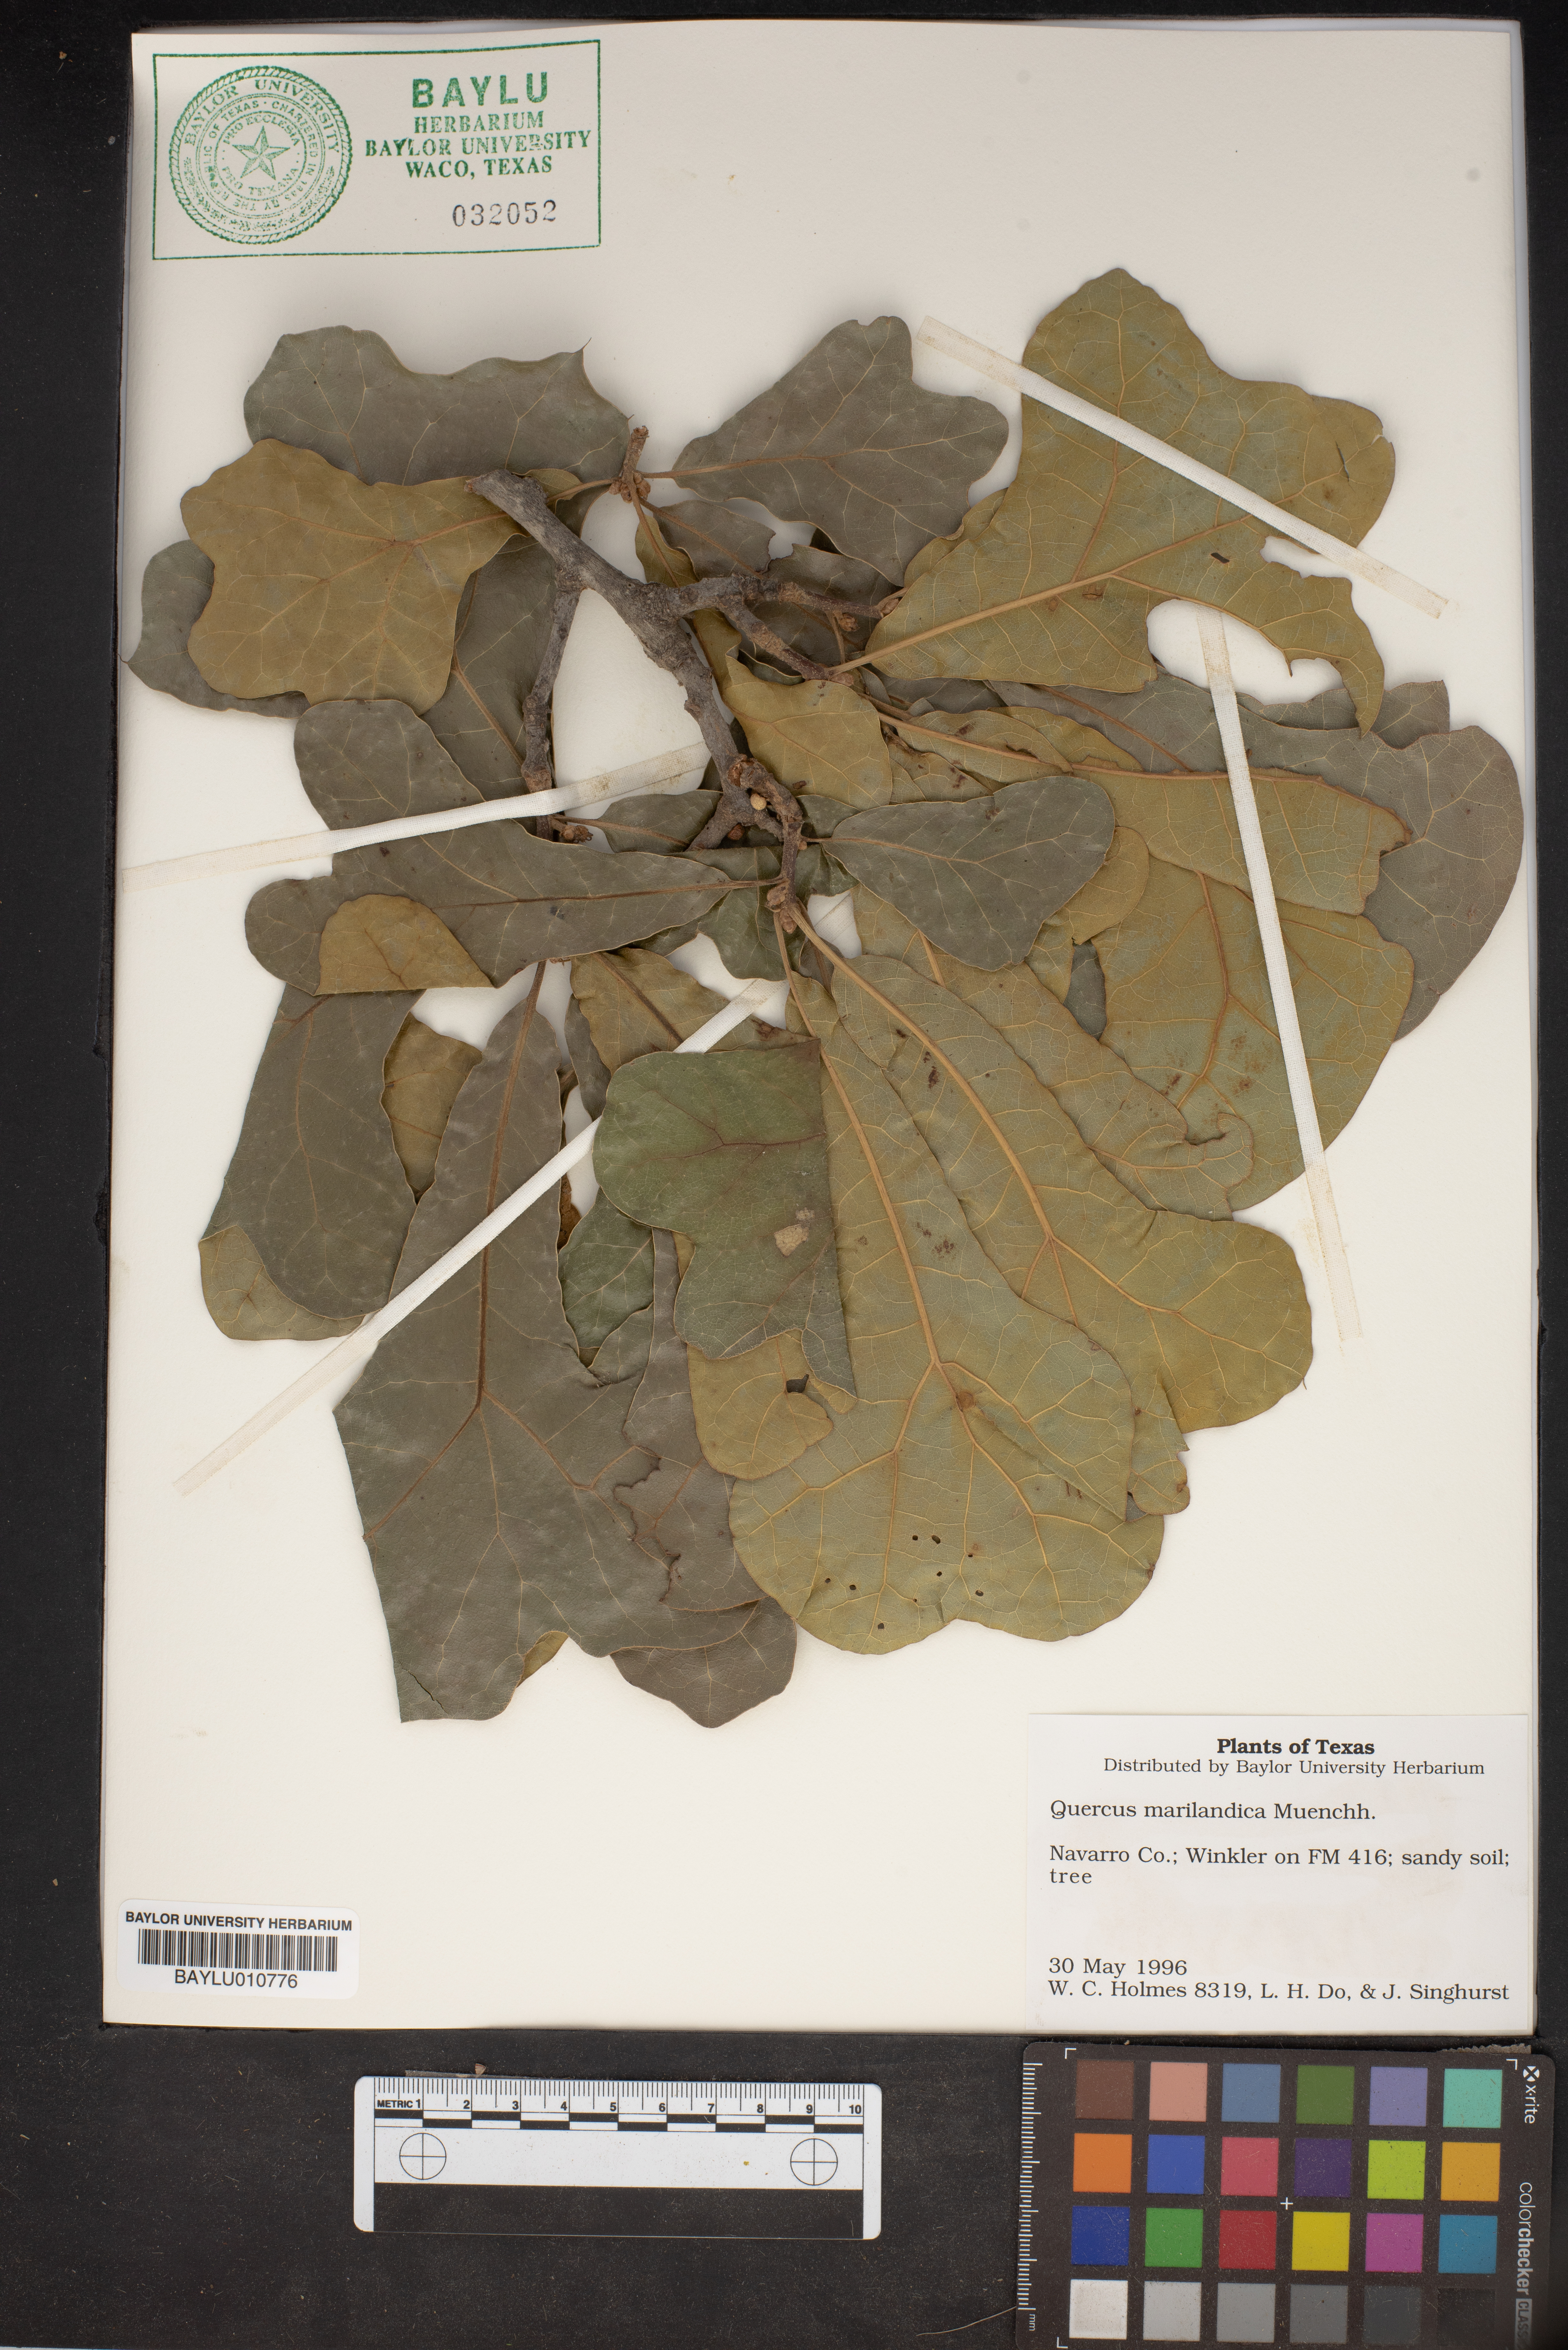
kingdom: Plantae
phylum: Tracheophyta
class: Magnoliopsida
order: Fagales
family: Fagaceae
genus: Quercus
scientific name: Quercus marilandica
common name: Blackjack oak
